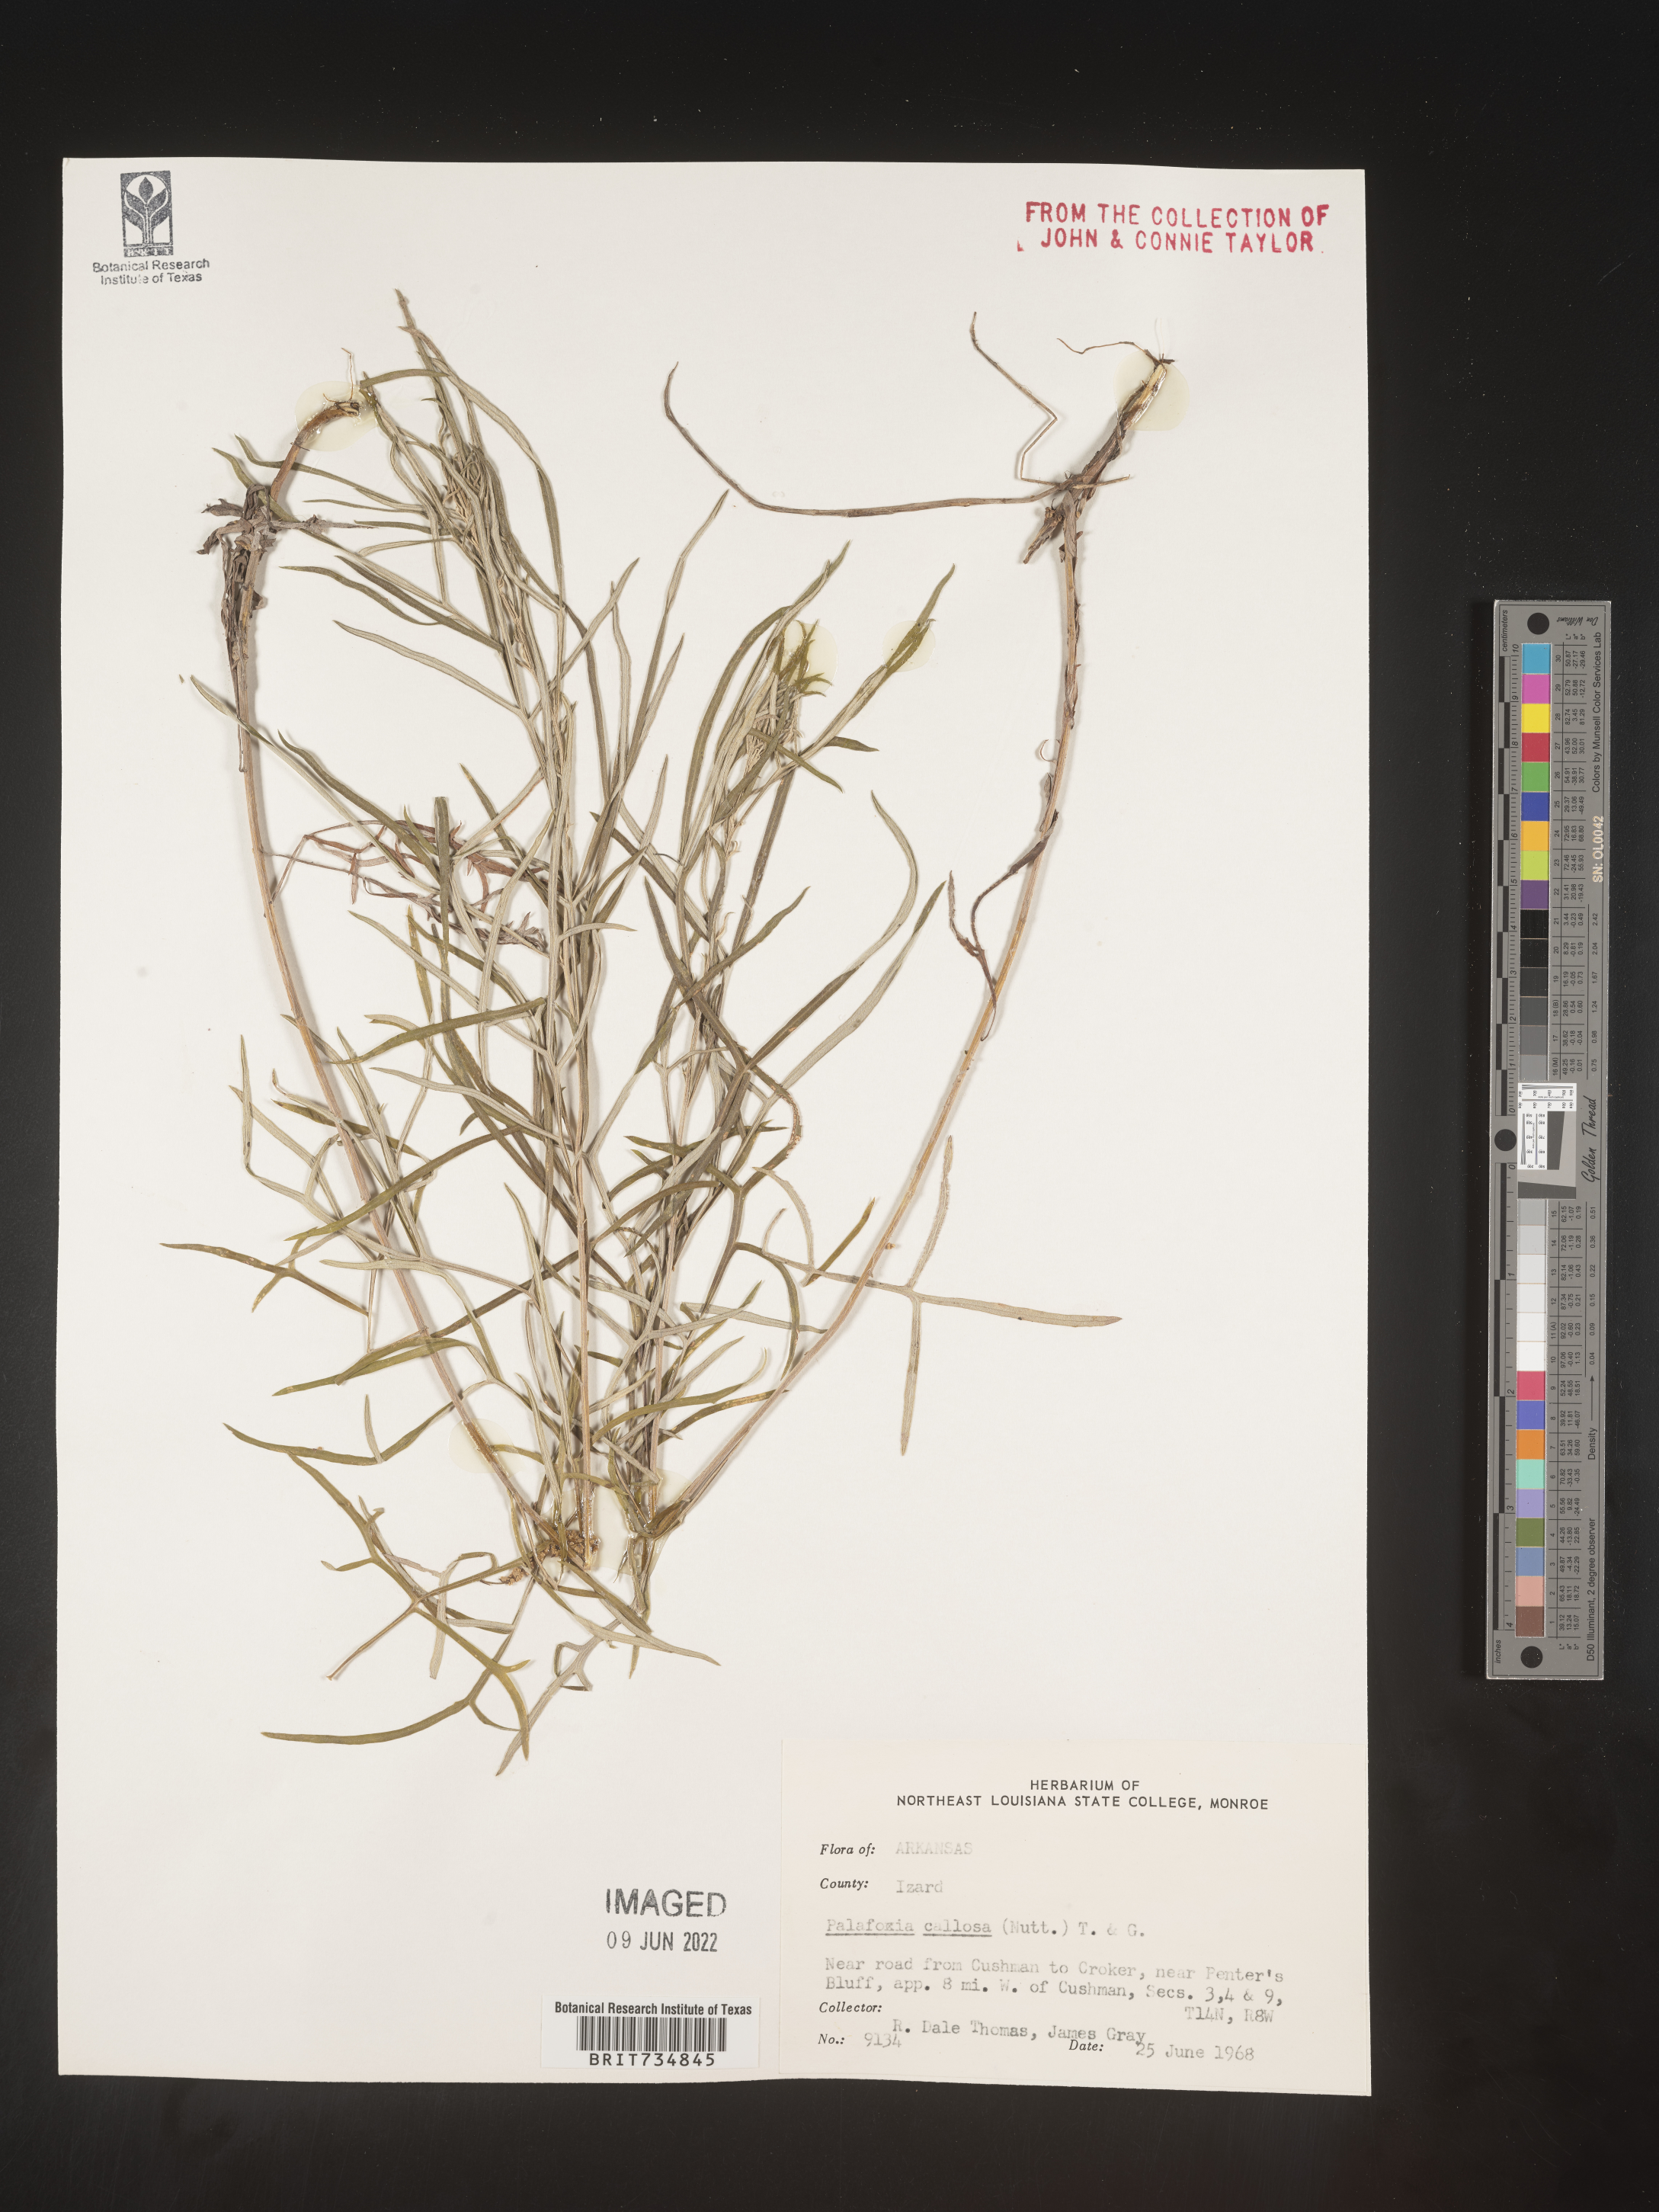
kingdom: Plantae
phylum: Tracheophyta
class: Magnoliopsida
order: Asterales
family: Asteraceae
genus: Palafoxia
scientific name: Palafoxia callosa
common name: Small palafox
